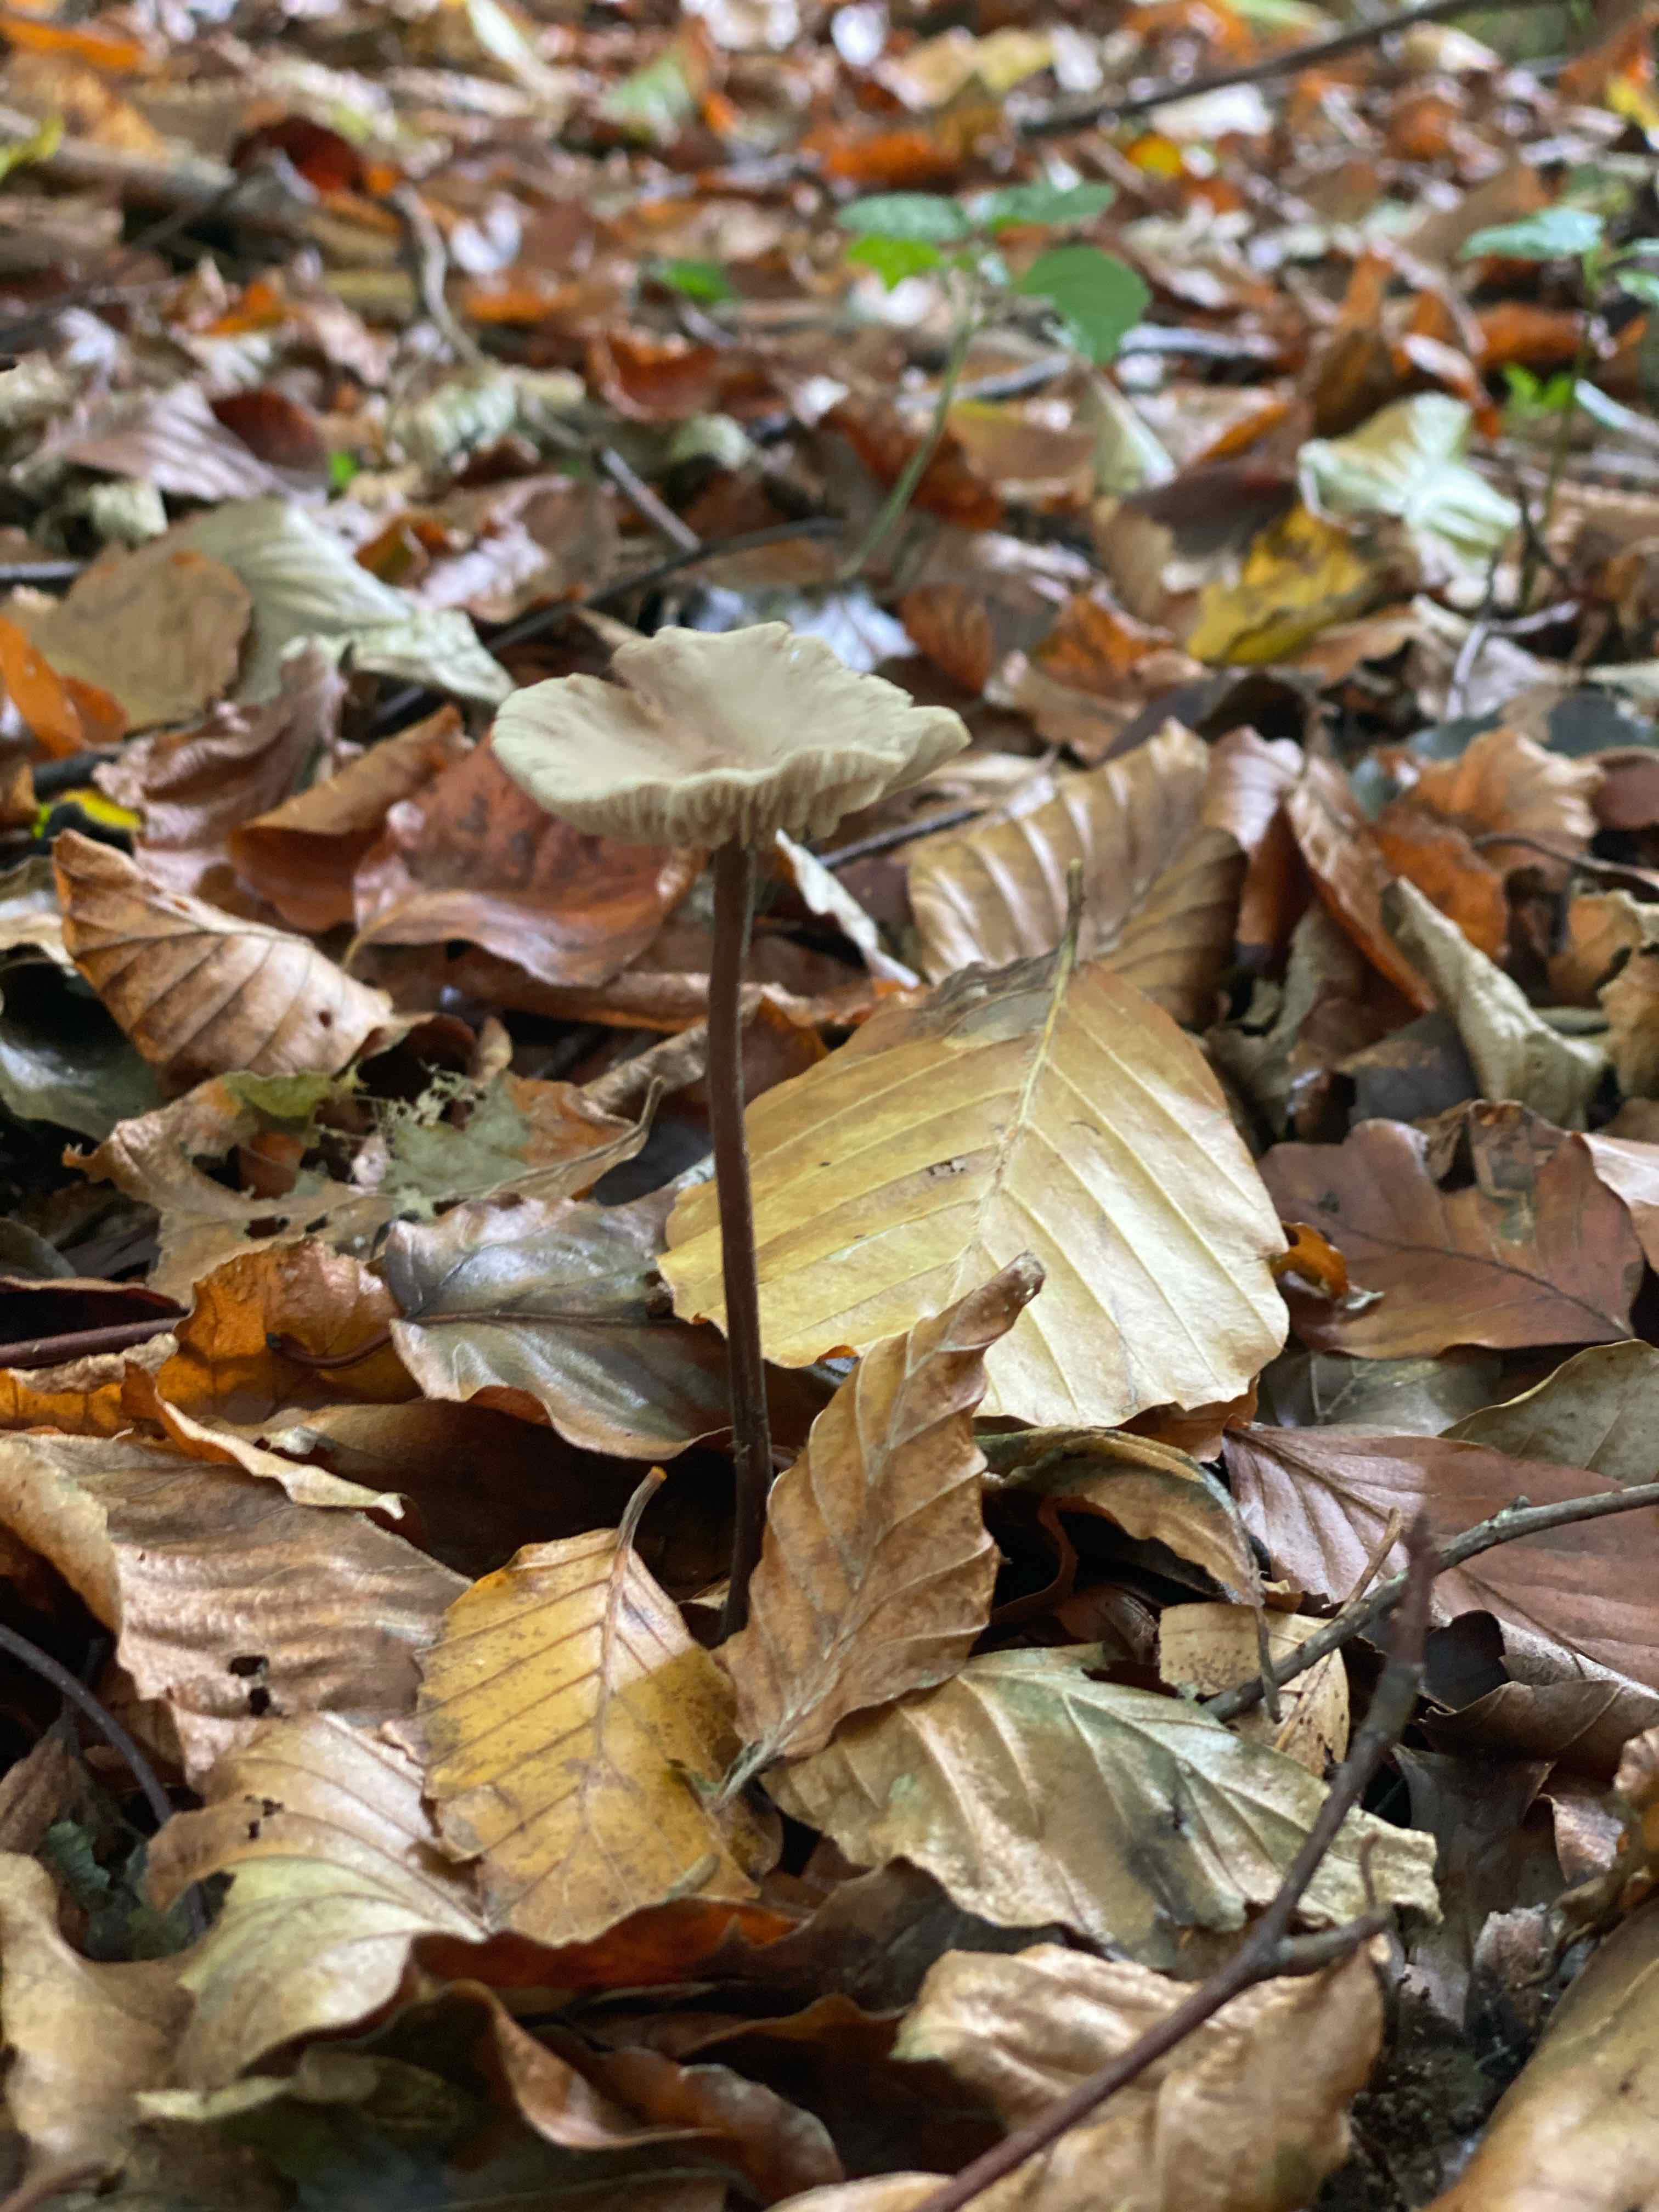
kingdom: Fungi
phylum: Basidiomycota
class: Agaricomycetes
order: Agaricales
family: Omphalotaceae
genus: Mycetinis
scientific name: Mycetinis alliaceus
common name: stor løghat
